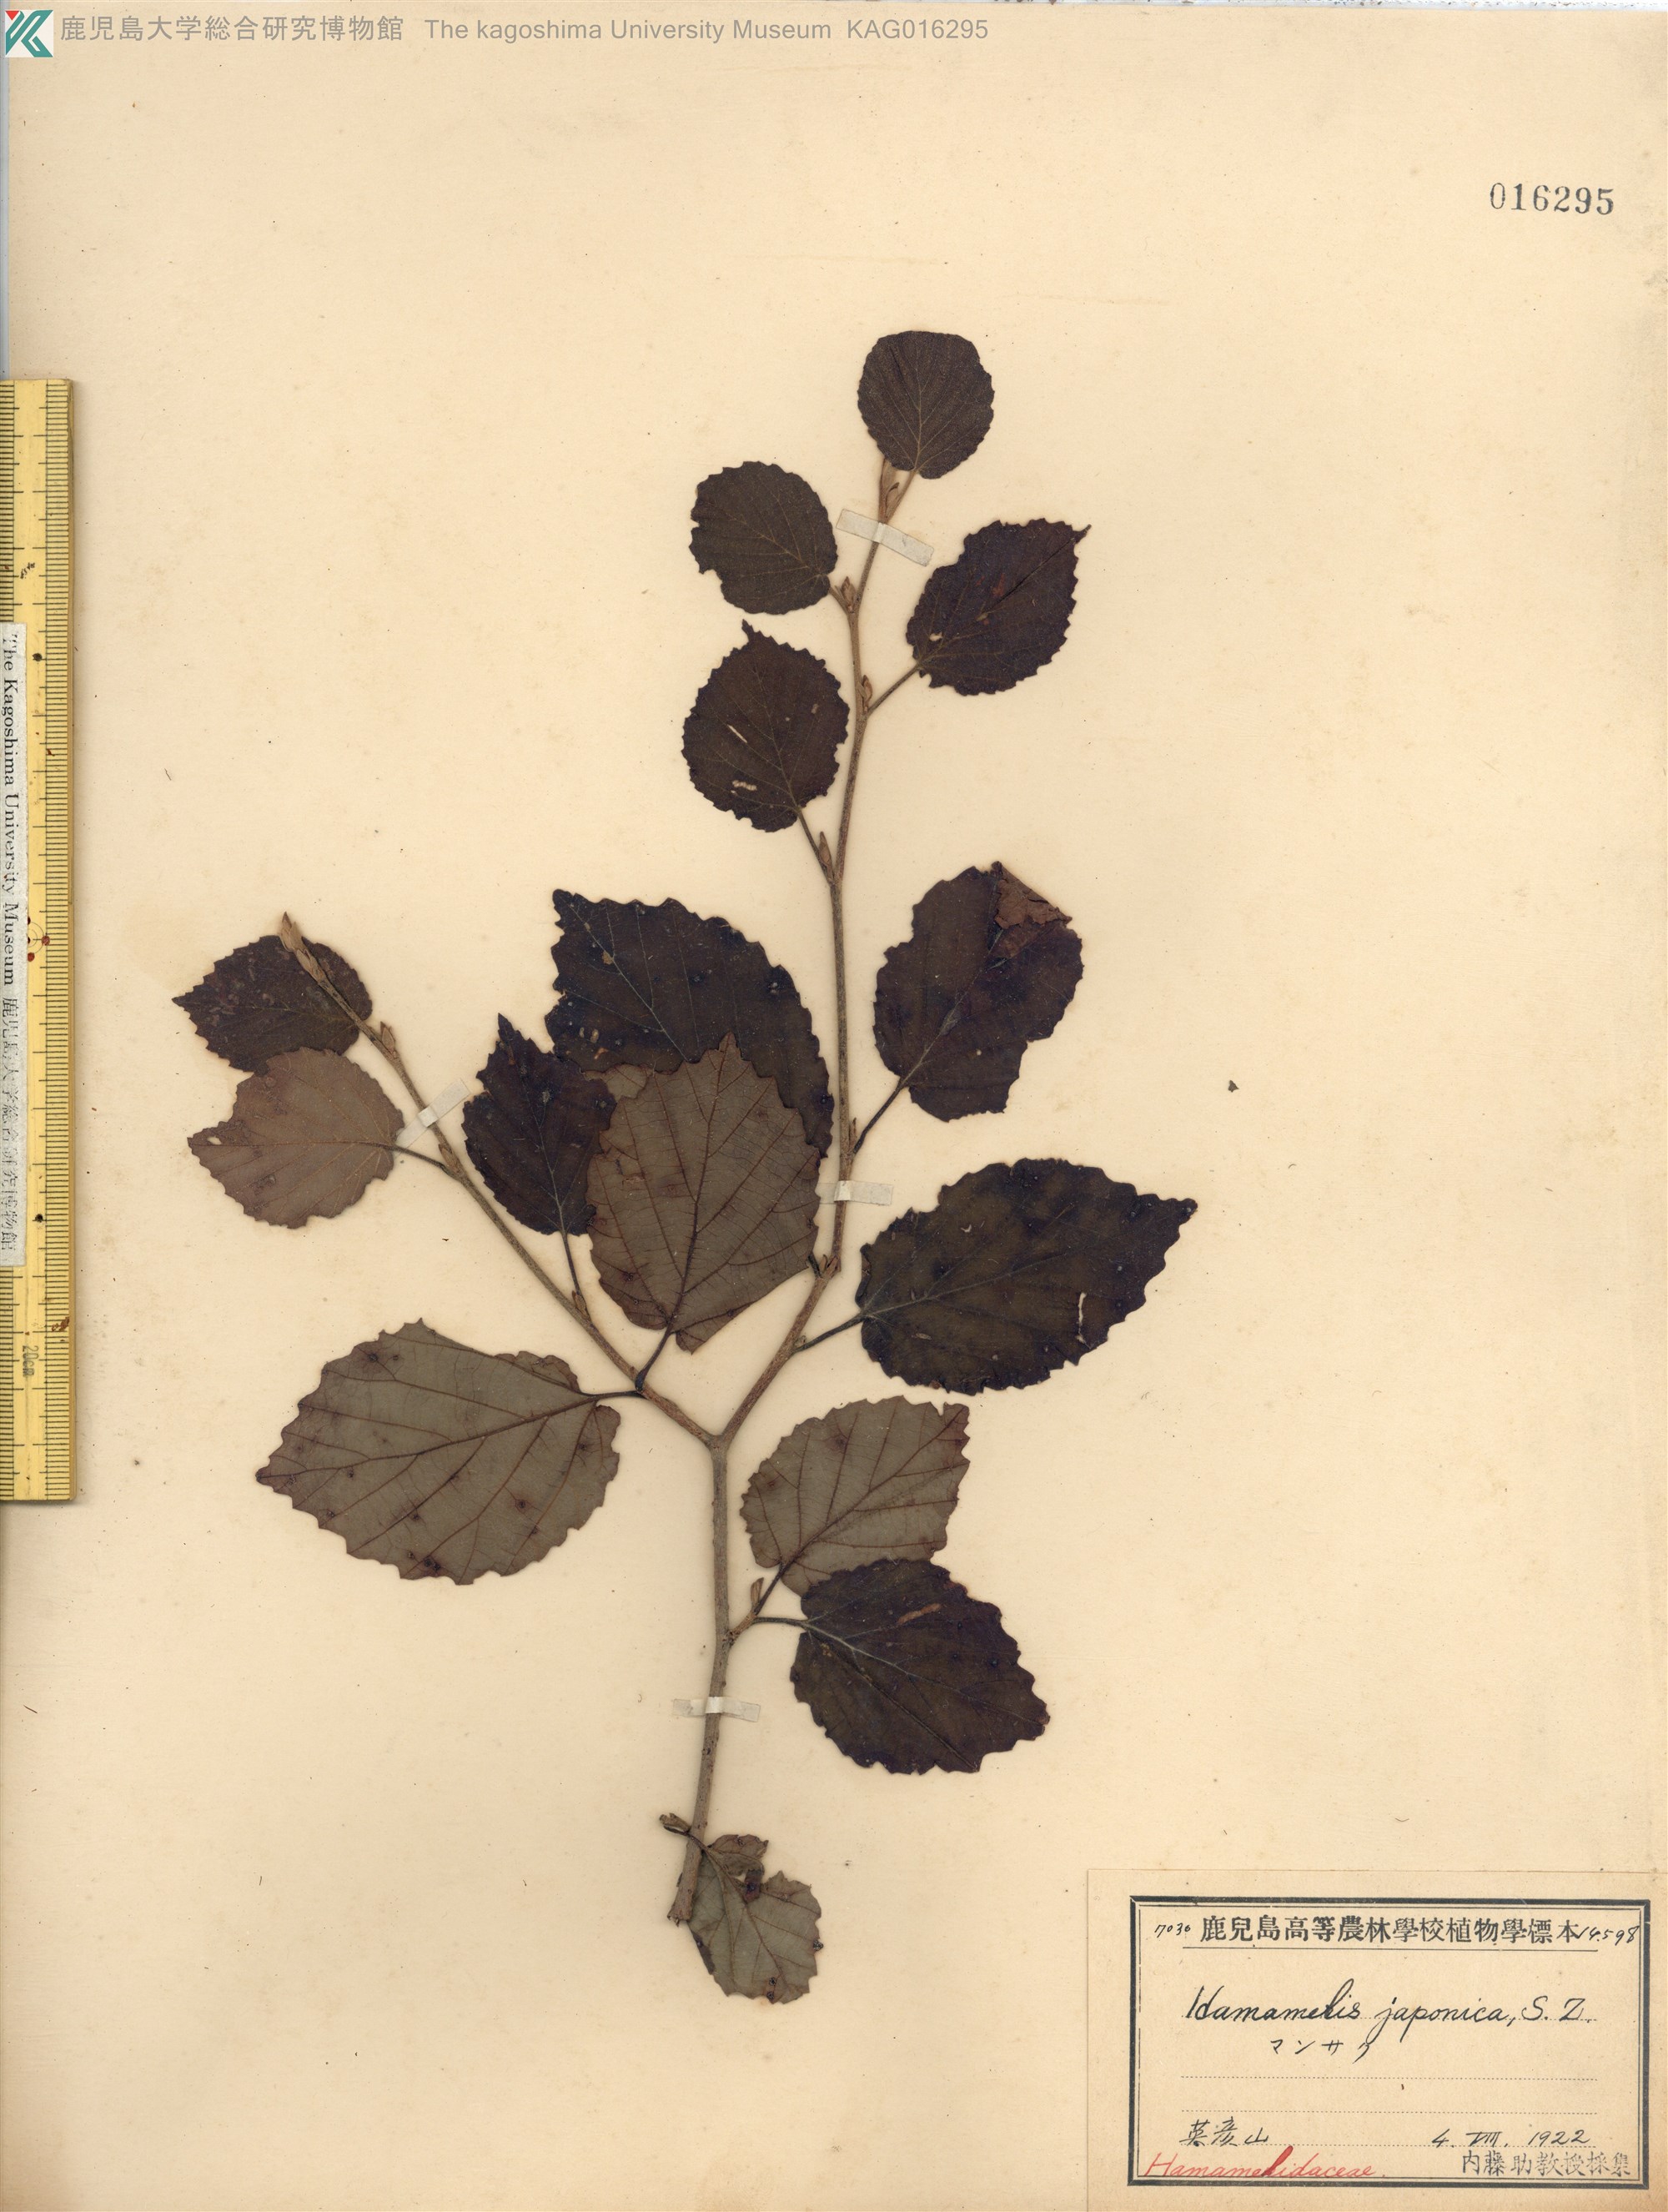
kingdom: Plantae
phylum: Tracheophyta
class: Magnoliopsida
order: Saxifragales
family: Hamamelidaceae
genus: Hamamelis
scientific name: Hamamelis japonica
